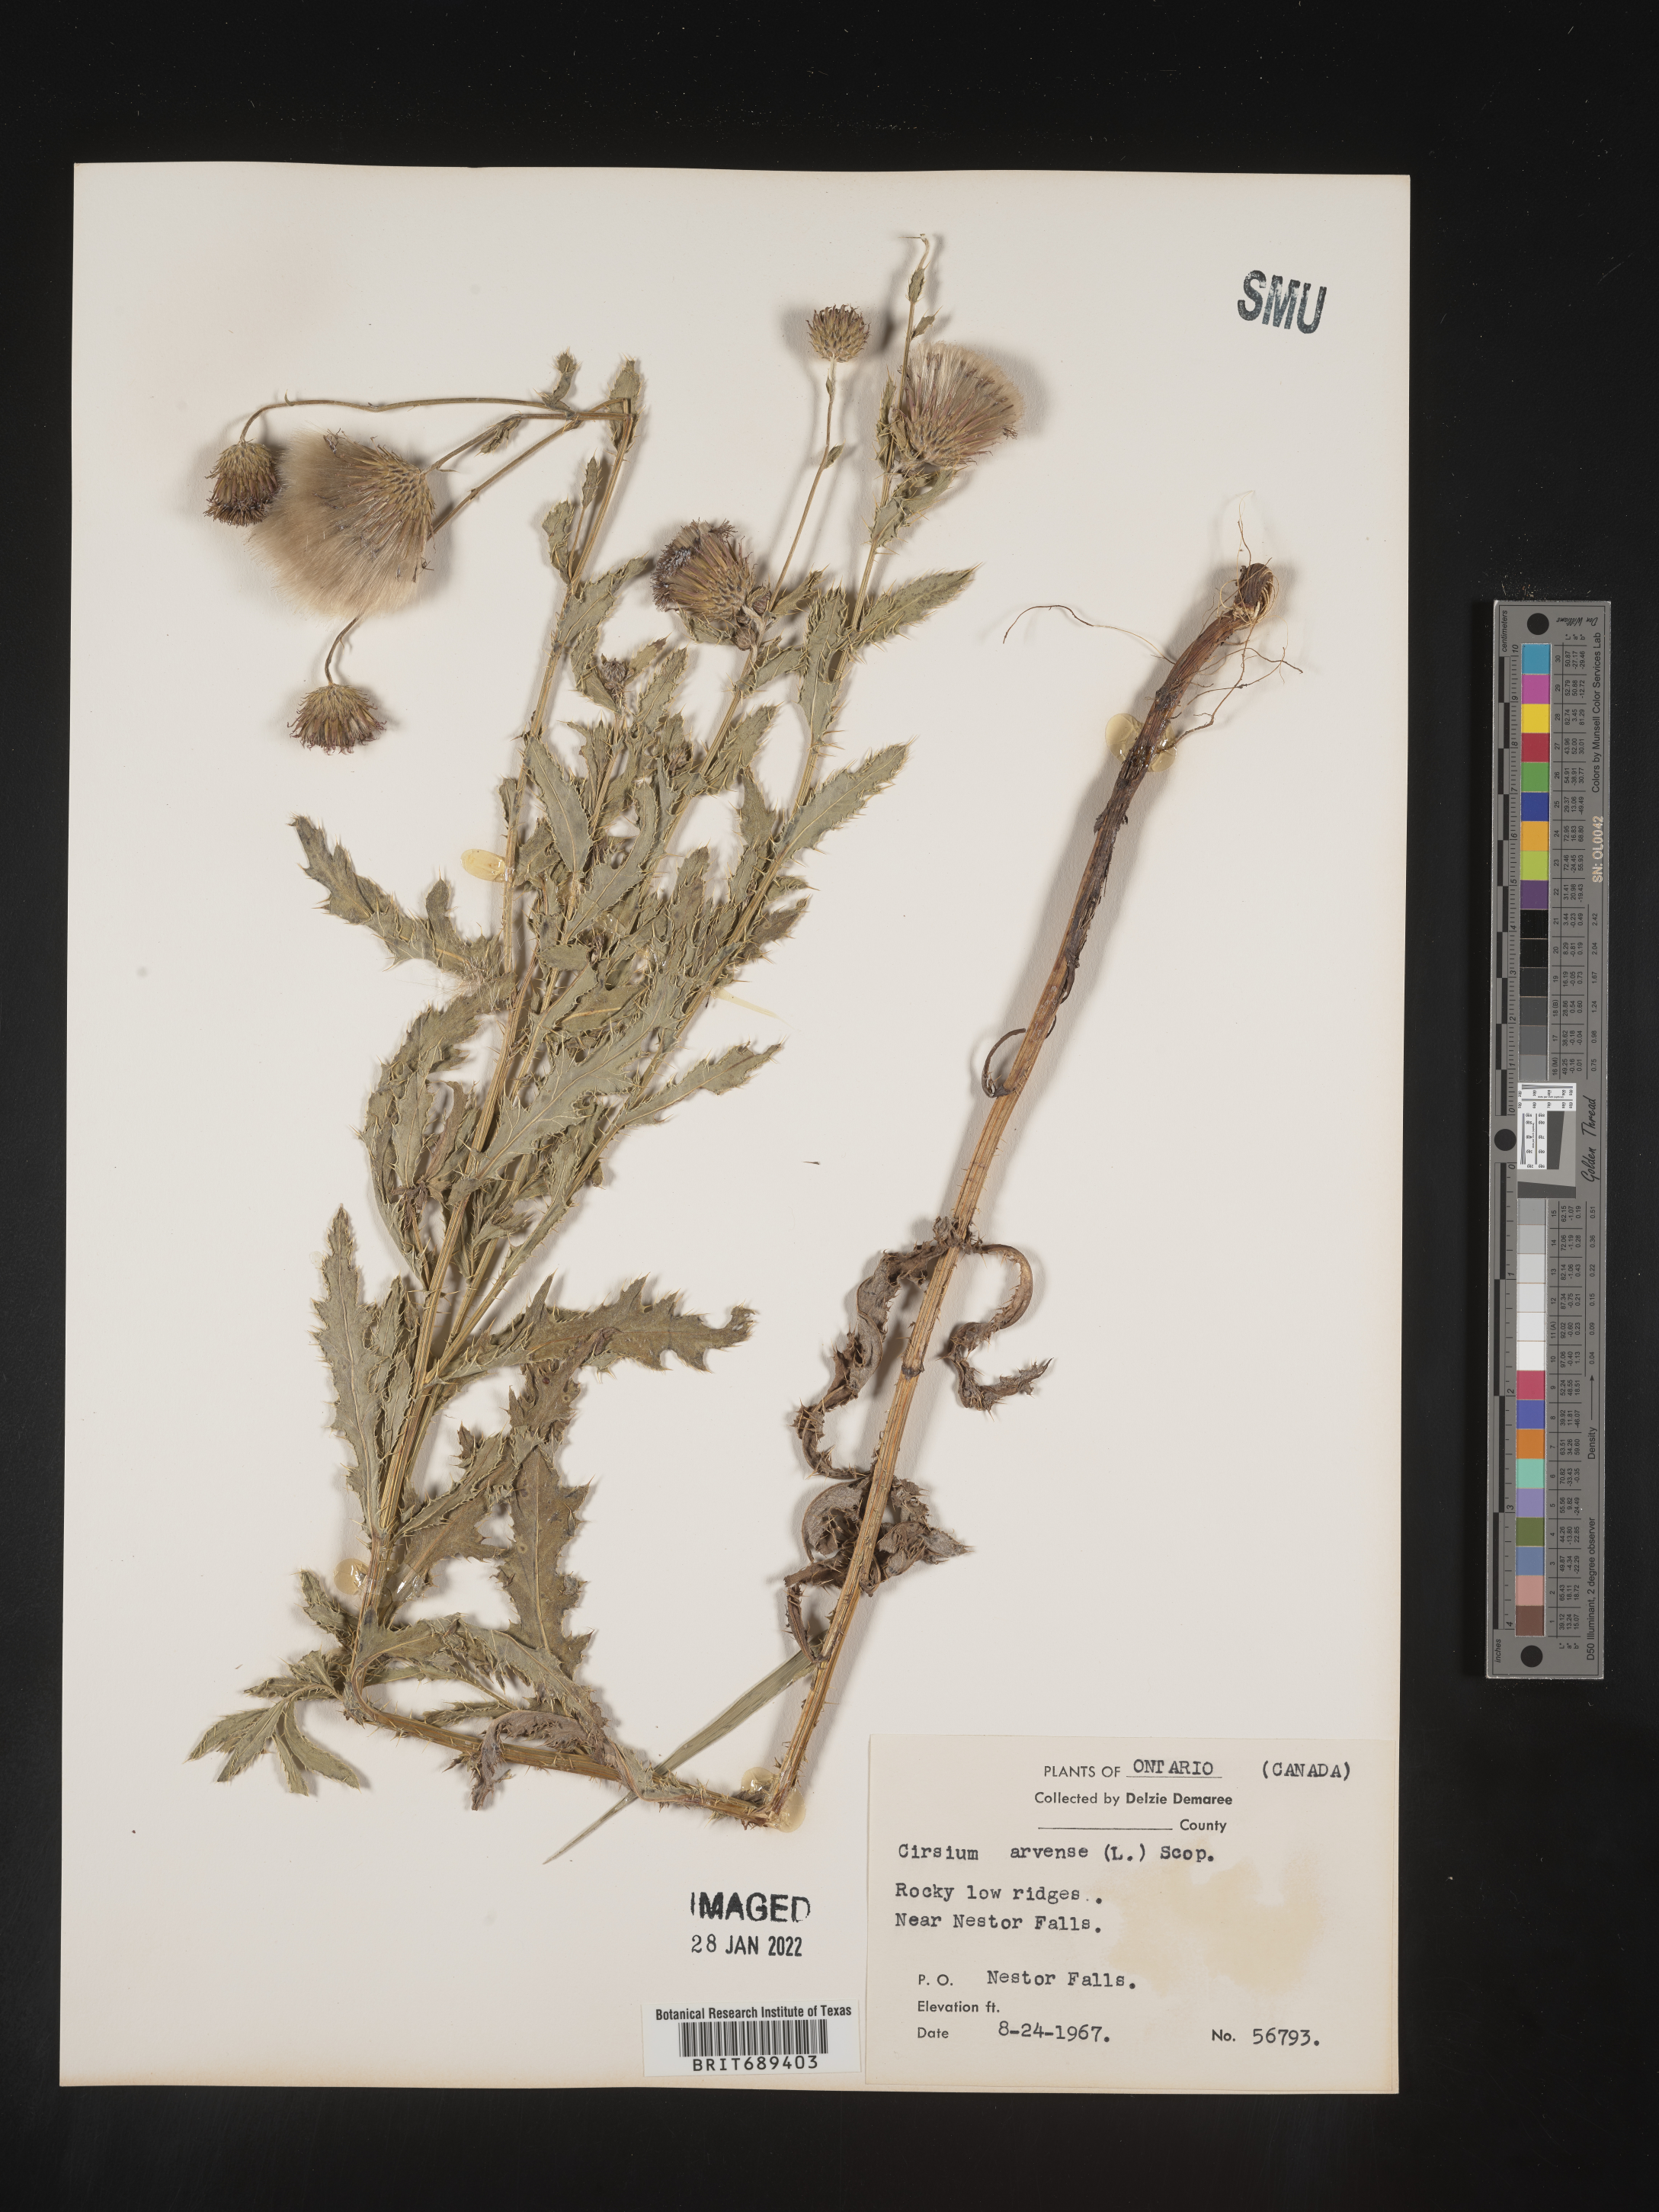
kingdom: Plantae
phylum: Tracheophyta
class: Magnoliopsida
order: Asterales
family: Asteraceae
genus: Cirsium
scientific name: Cirsium arvense
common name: Creeping thistle
